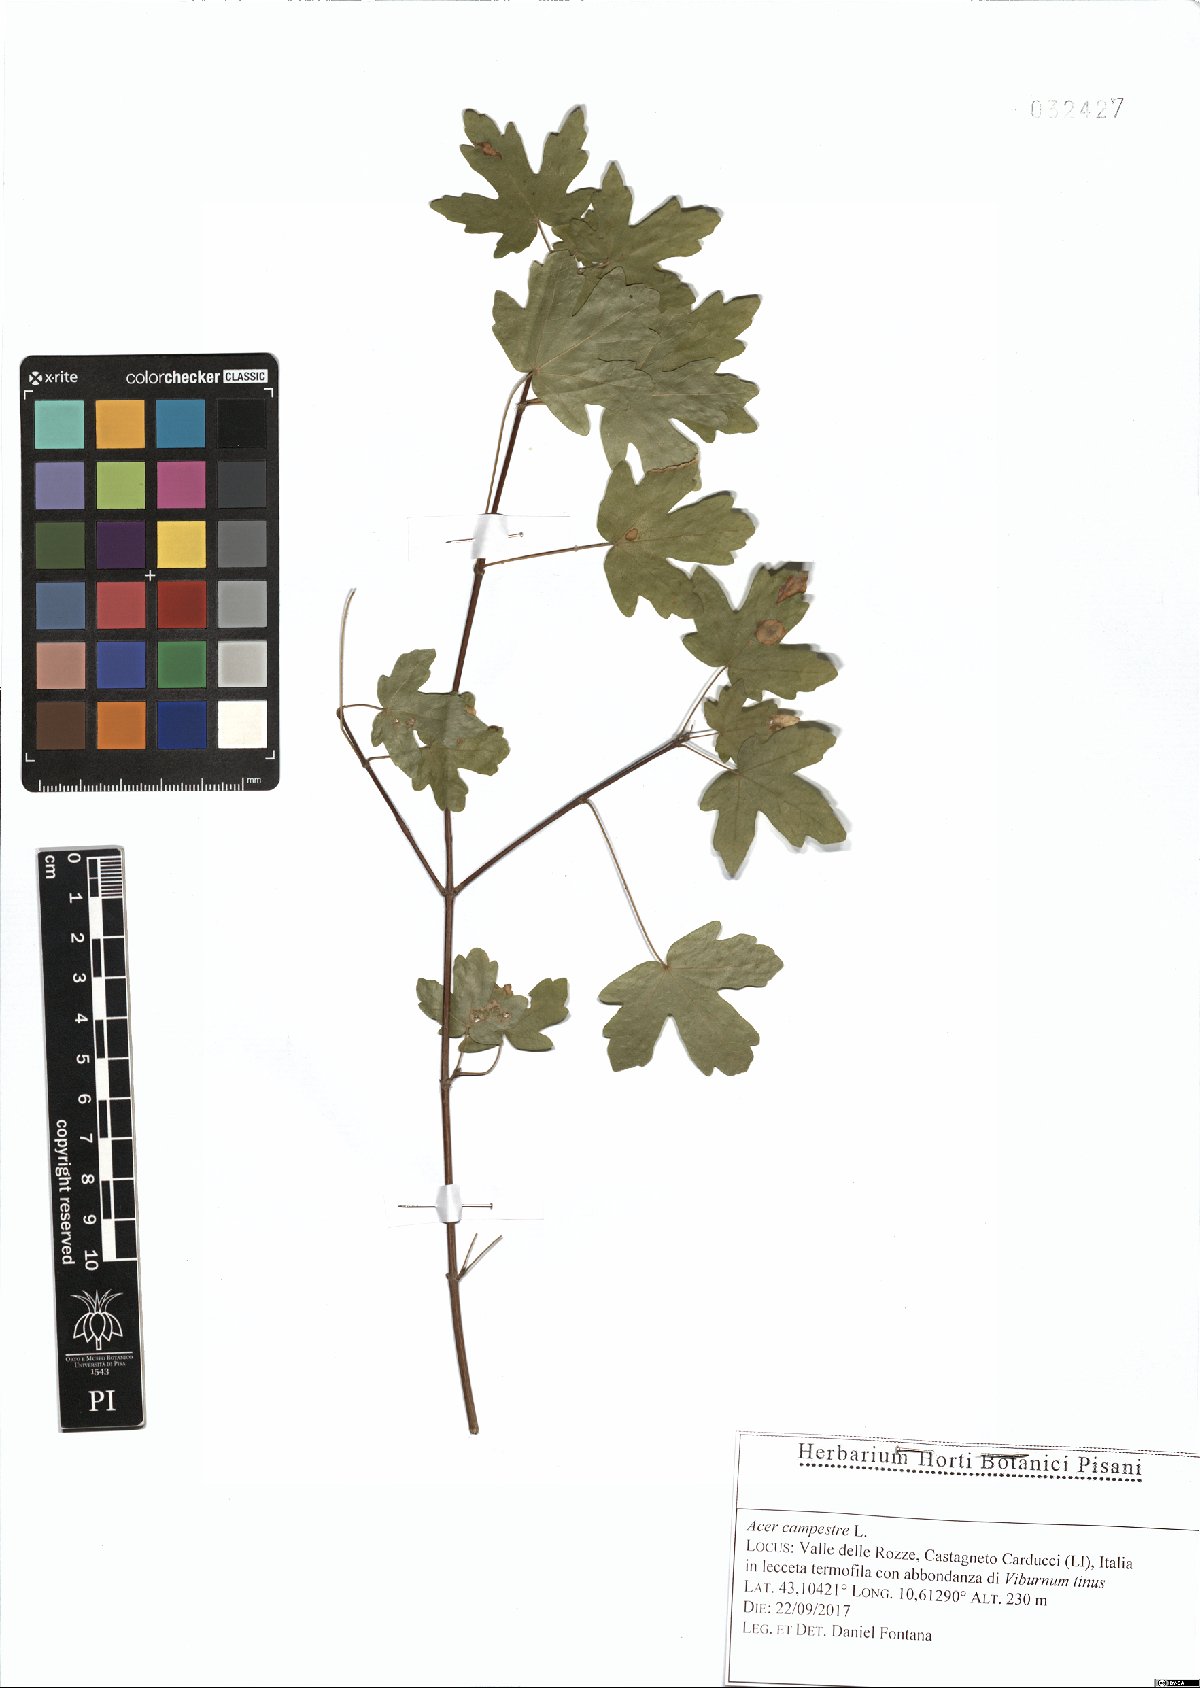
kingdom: Plantae
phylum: Tracheophyta
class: Magnoliopsida
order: Sapindales
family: Sapindaceae
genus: Acer
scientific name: Acer campestre
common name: Field maple
